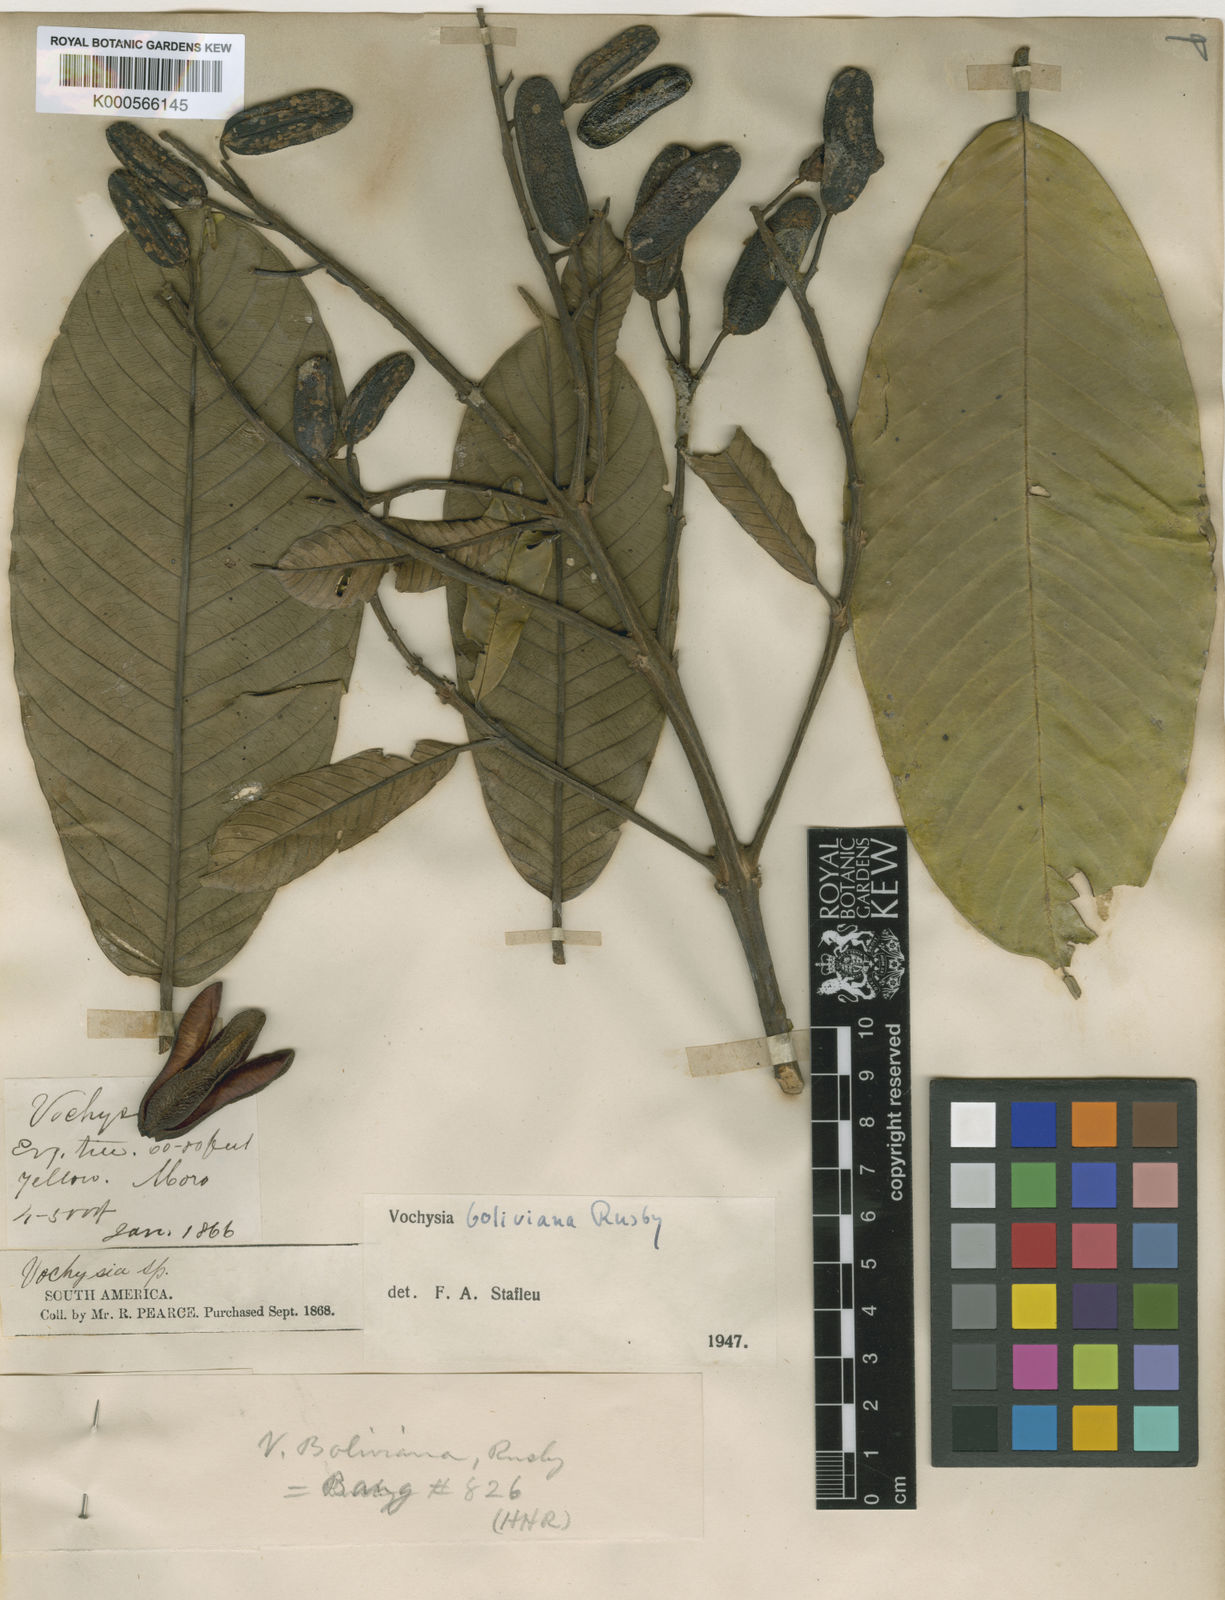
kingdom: Plantae
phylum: Tracheophyta
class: Magnoliopsida
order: Myrtales
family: Vochysiaceae
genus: Vochysia
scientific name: Vochysia boliviana
